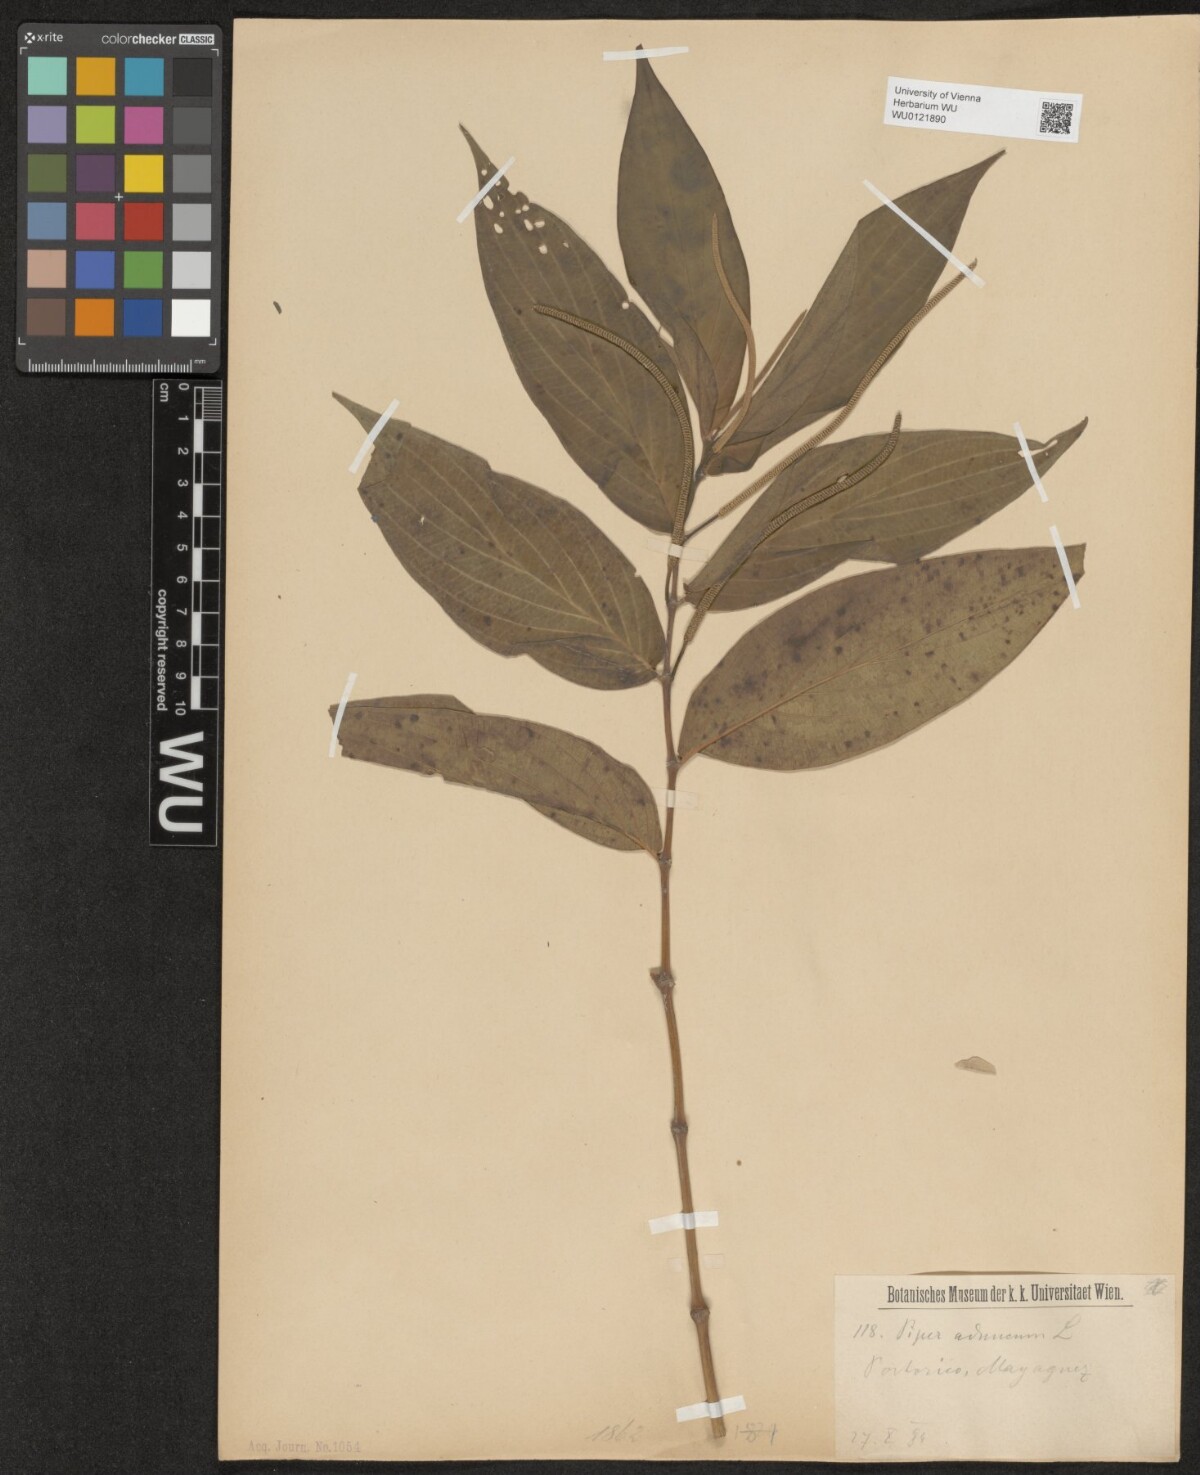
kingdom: Plantae
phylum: Tracheophyta
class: Magnoliopsida
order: Piperales
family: Piperaceae
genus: Piper
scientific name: Piper aduncum
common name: Spiked pepper
